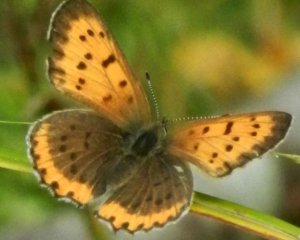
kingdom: Animalia
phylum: Arthropoda
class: Insecta
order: Lepidoptera
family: Lycaenidae
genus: Lycaena
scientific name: Lycaena phlaeas
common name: American Copper
